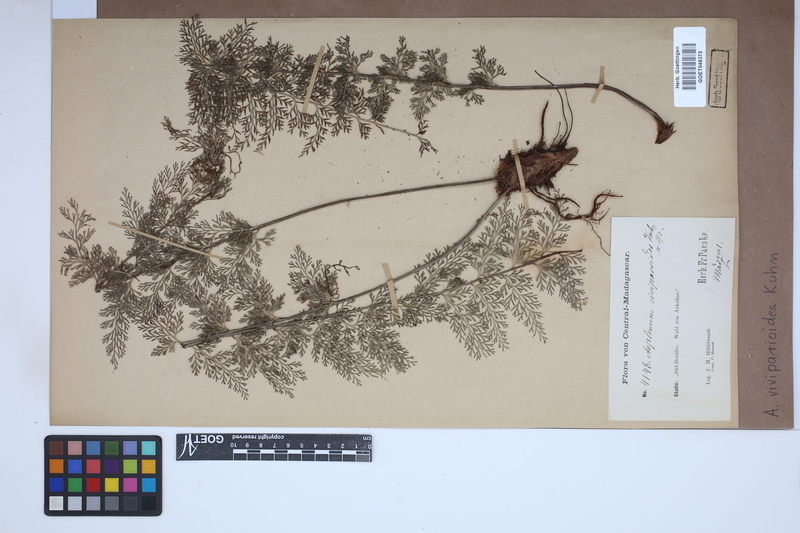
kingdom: Plantae
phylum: Tracheophyta
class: Polypodiopsida
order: Polypodiales
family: Aspleniaceae
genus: Asplenium
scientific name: Asplenium viviparioides
